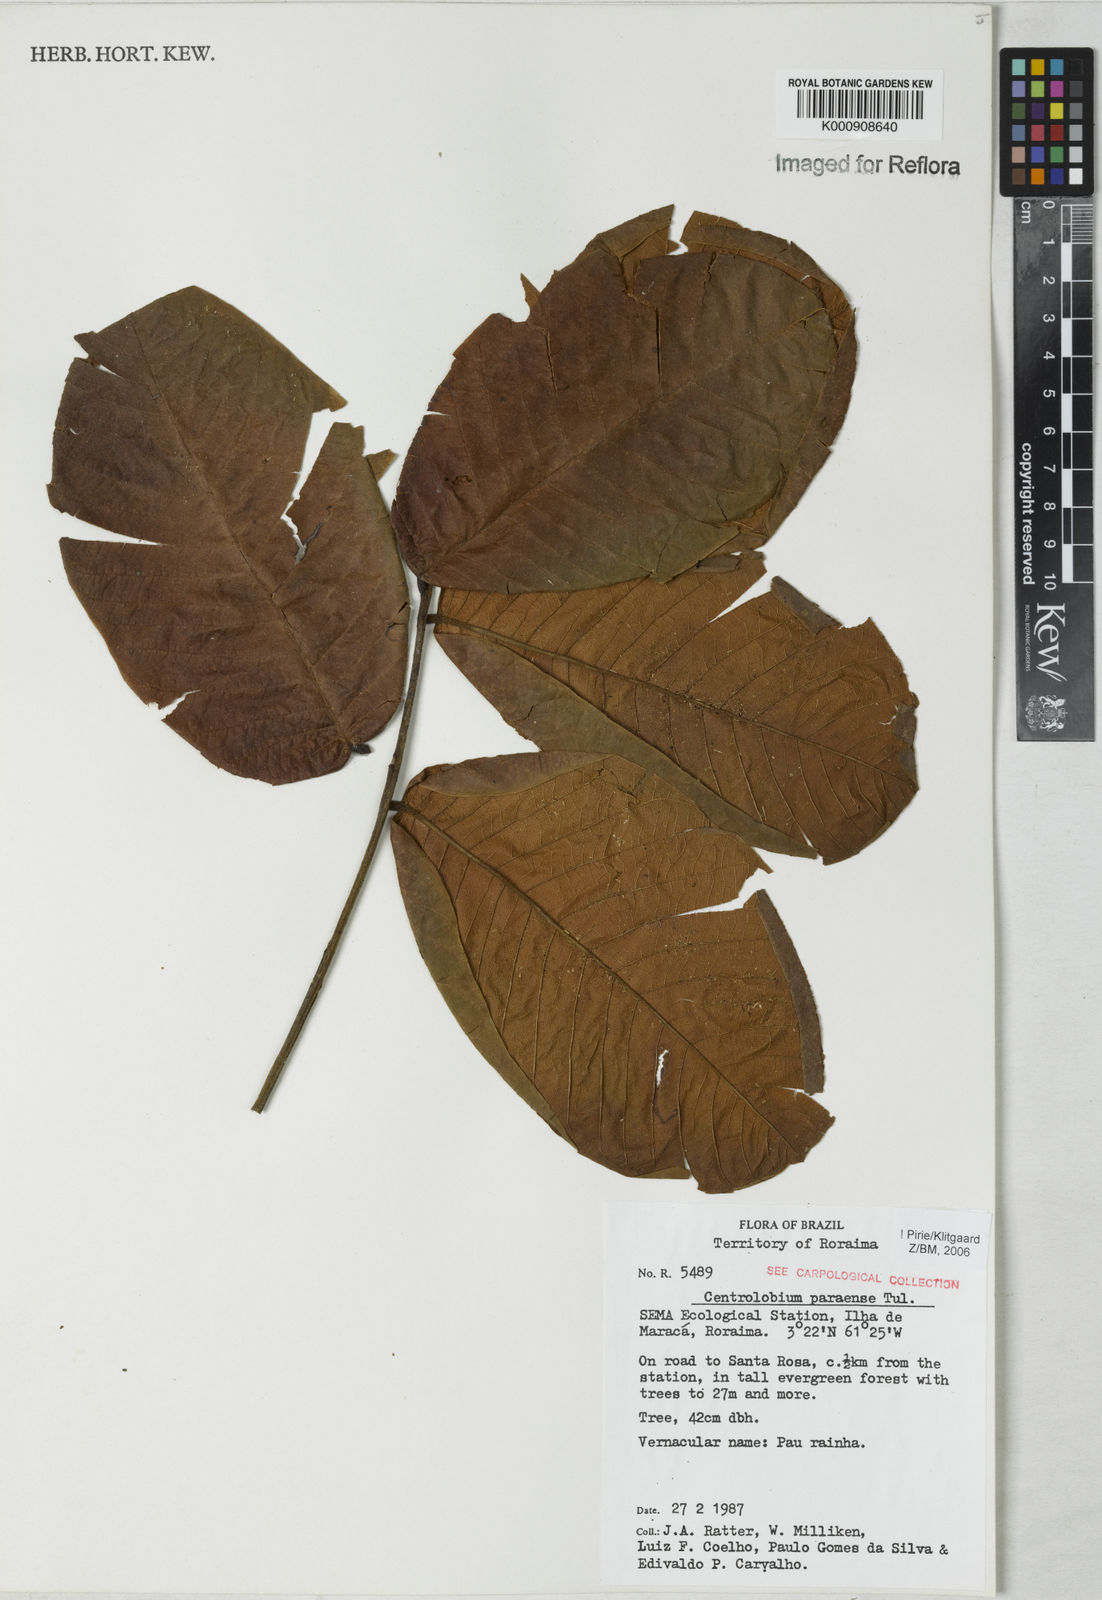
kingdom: Plantae
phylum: Tracheophyta
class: Magnoliopsida
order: Fabales
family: Fabaceae
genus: Centrolobium
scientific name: Centrolobium paraense
